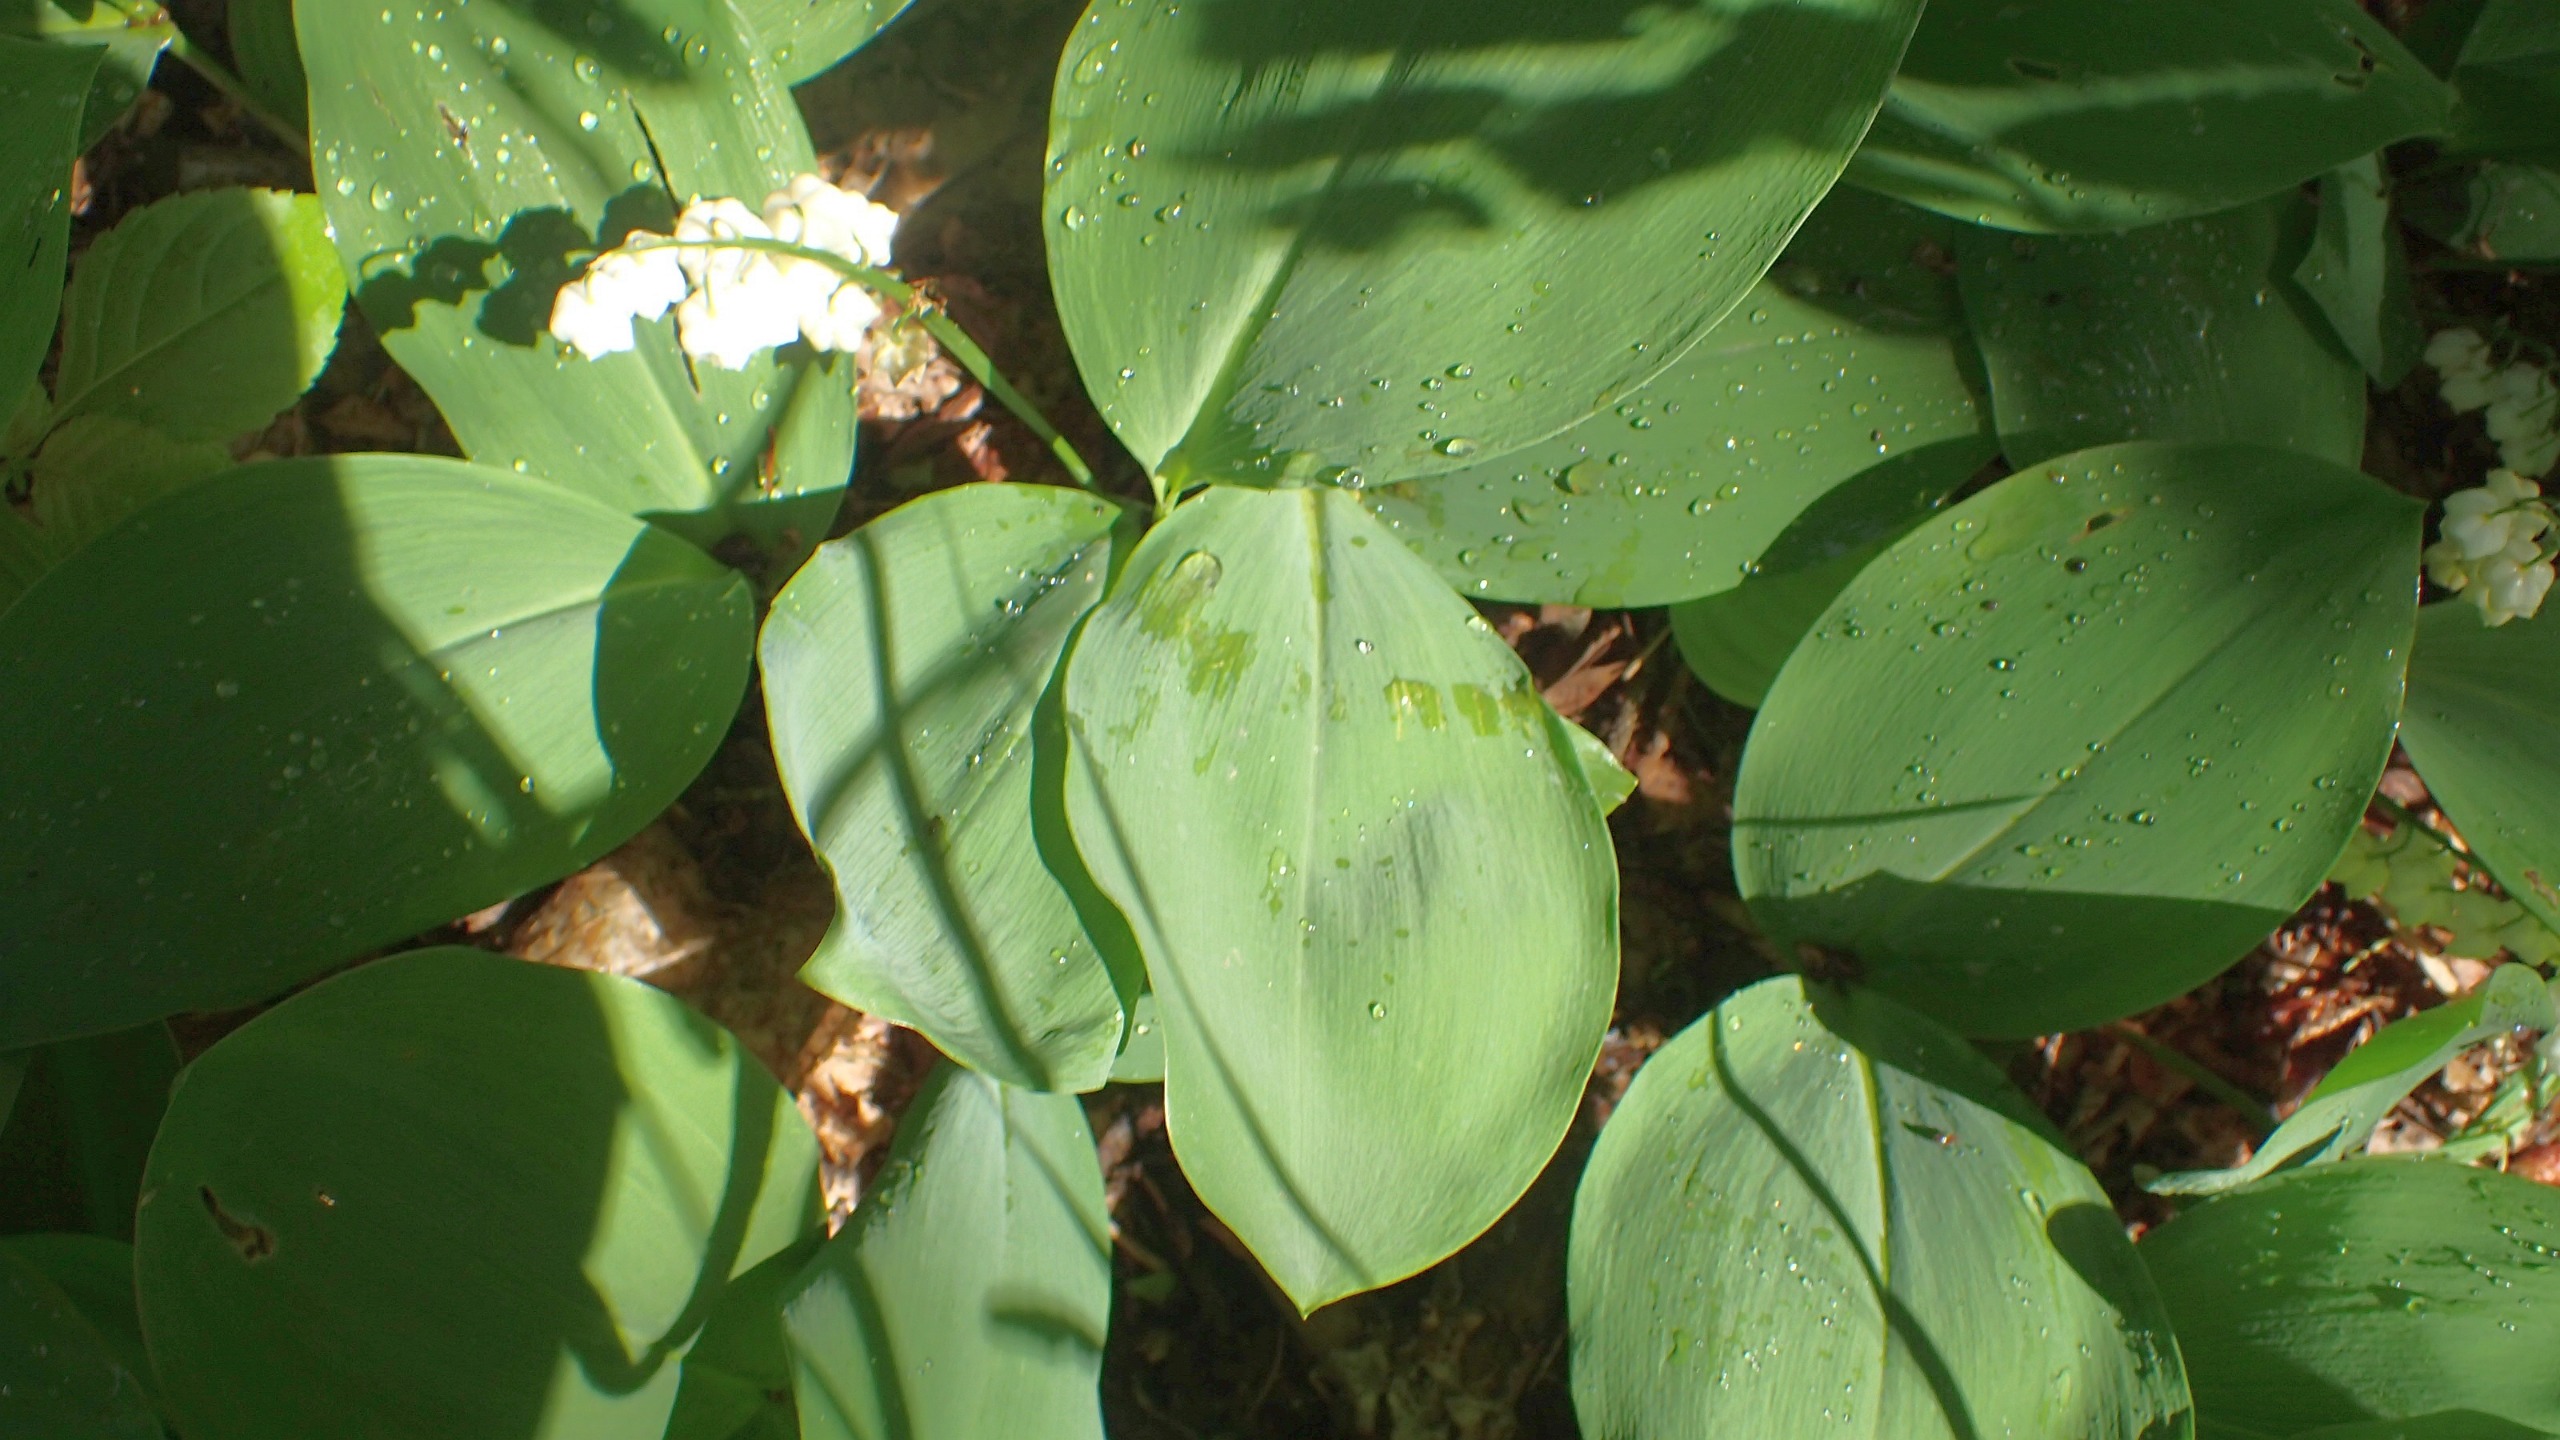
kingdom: Plantae
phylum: Tracheophyta
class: Liliopsida
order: Asparagales
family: Asparagaceae
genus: Convallaria
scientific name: Convallaria majalis
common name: Liljekonval
